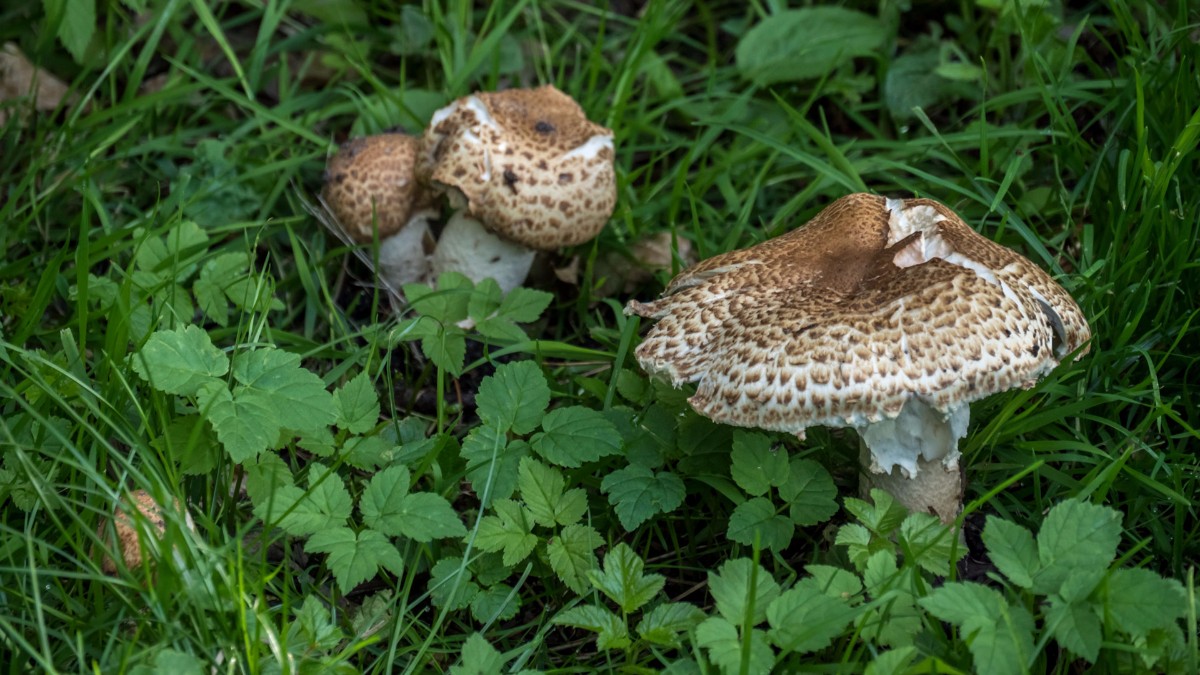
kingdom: Fungi
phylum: Basidiomycota
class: Agaricomycetes
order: Agaricales
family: Agaricaceae
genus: Agaricus
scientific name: Agaricus augustus
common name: prægtig champignon
